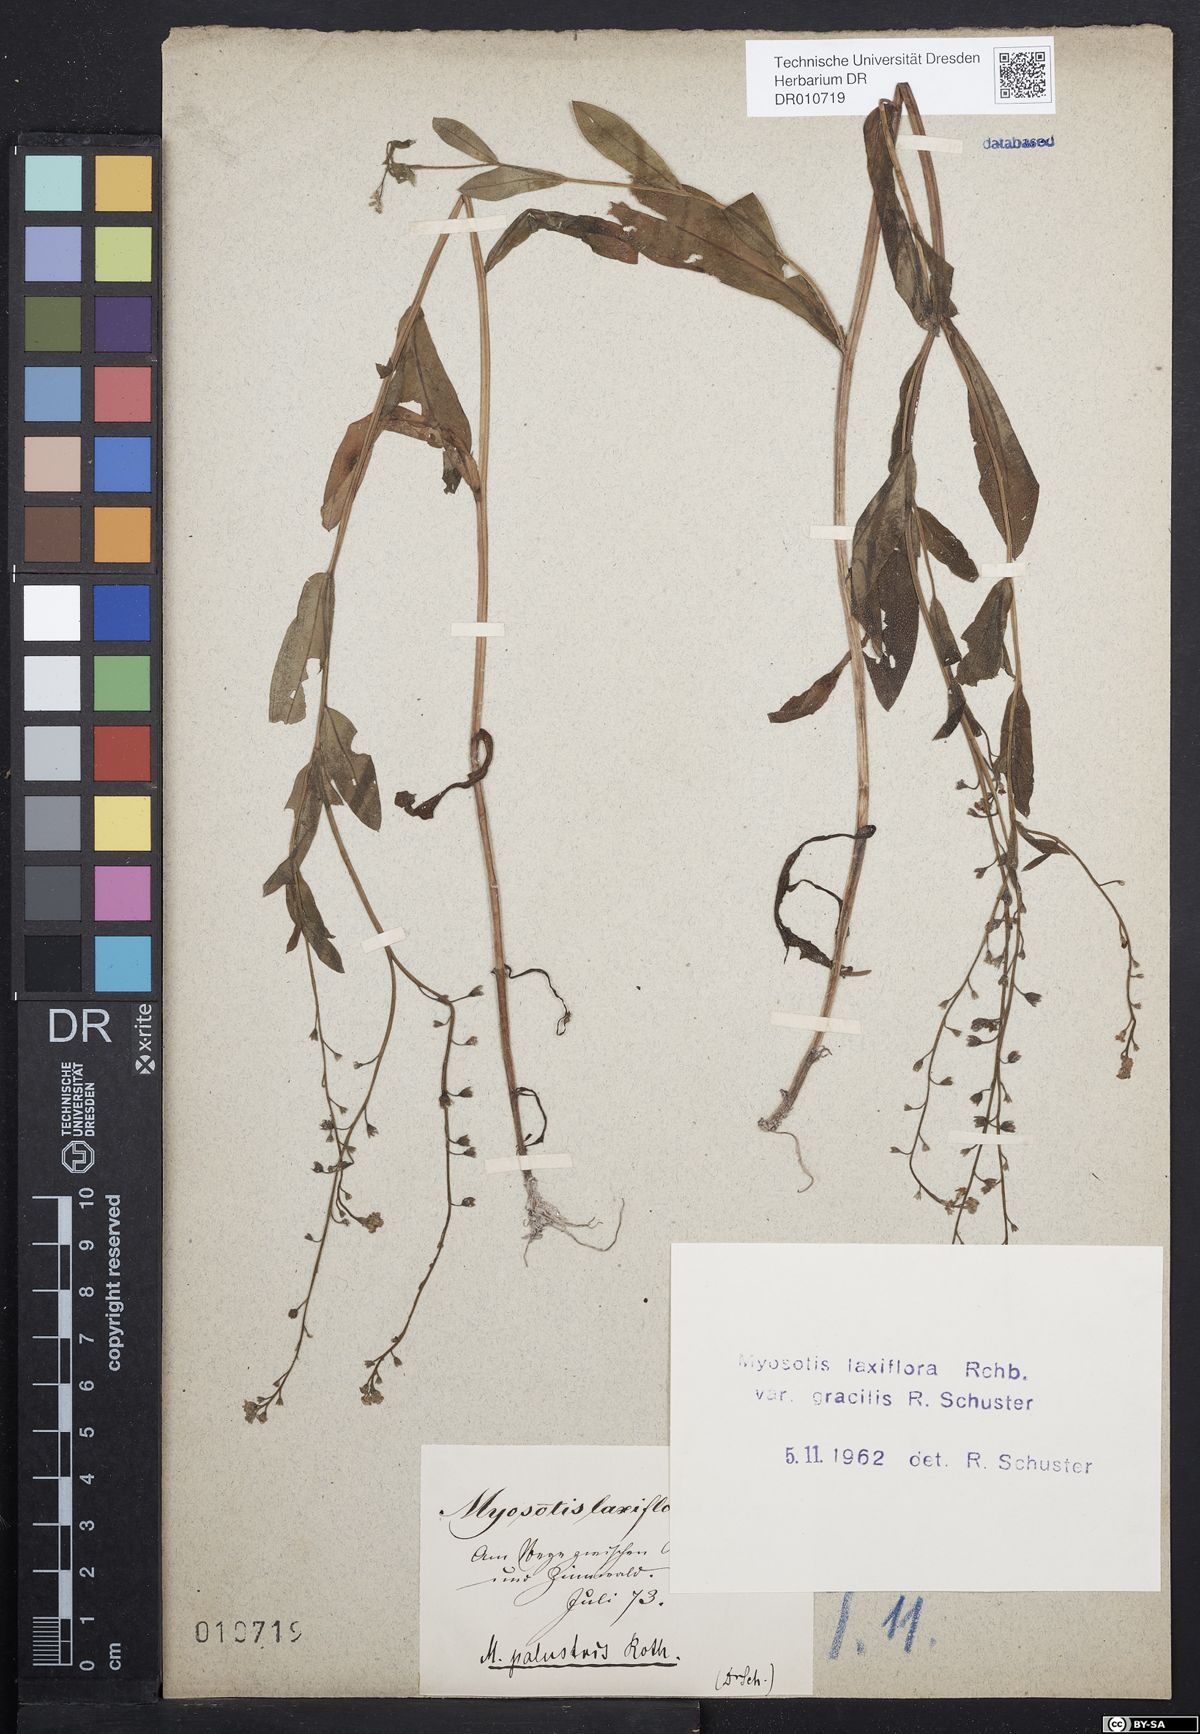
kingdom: Plantae
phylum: Tracheophyta
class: Magnoliopsida
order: Boraginales
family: Boraginaceae
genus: Myosotis
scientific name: Myosotis scorpioides
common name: Water forget-me-not
